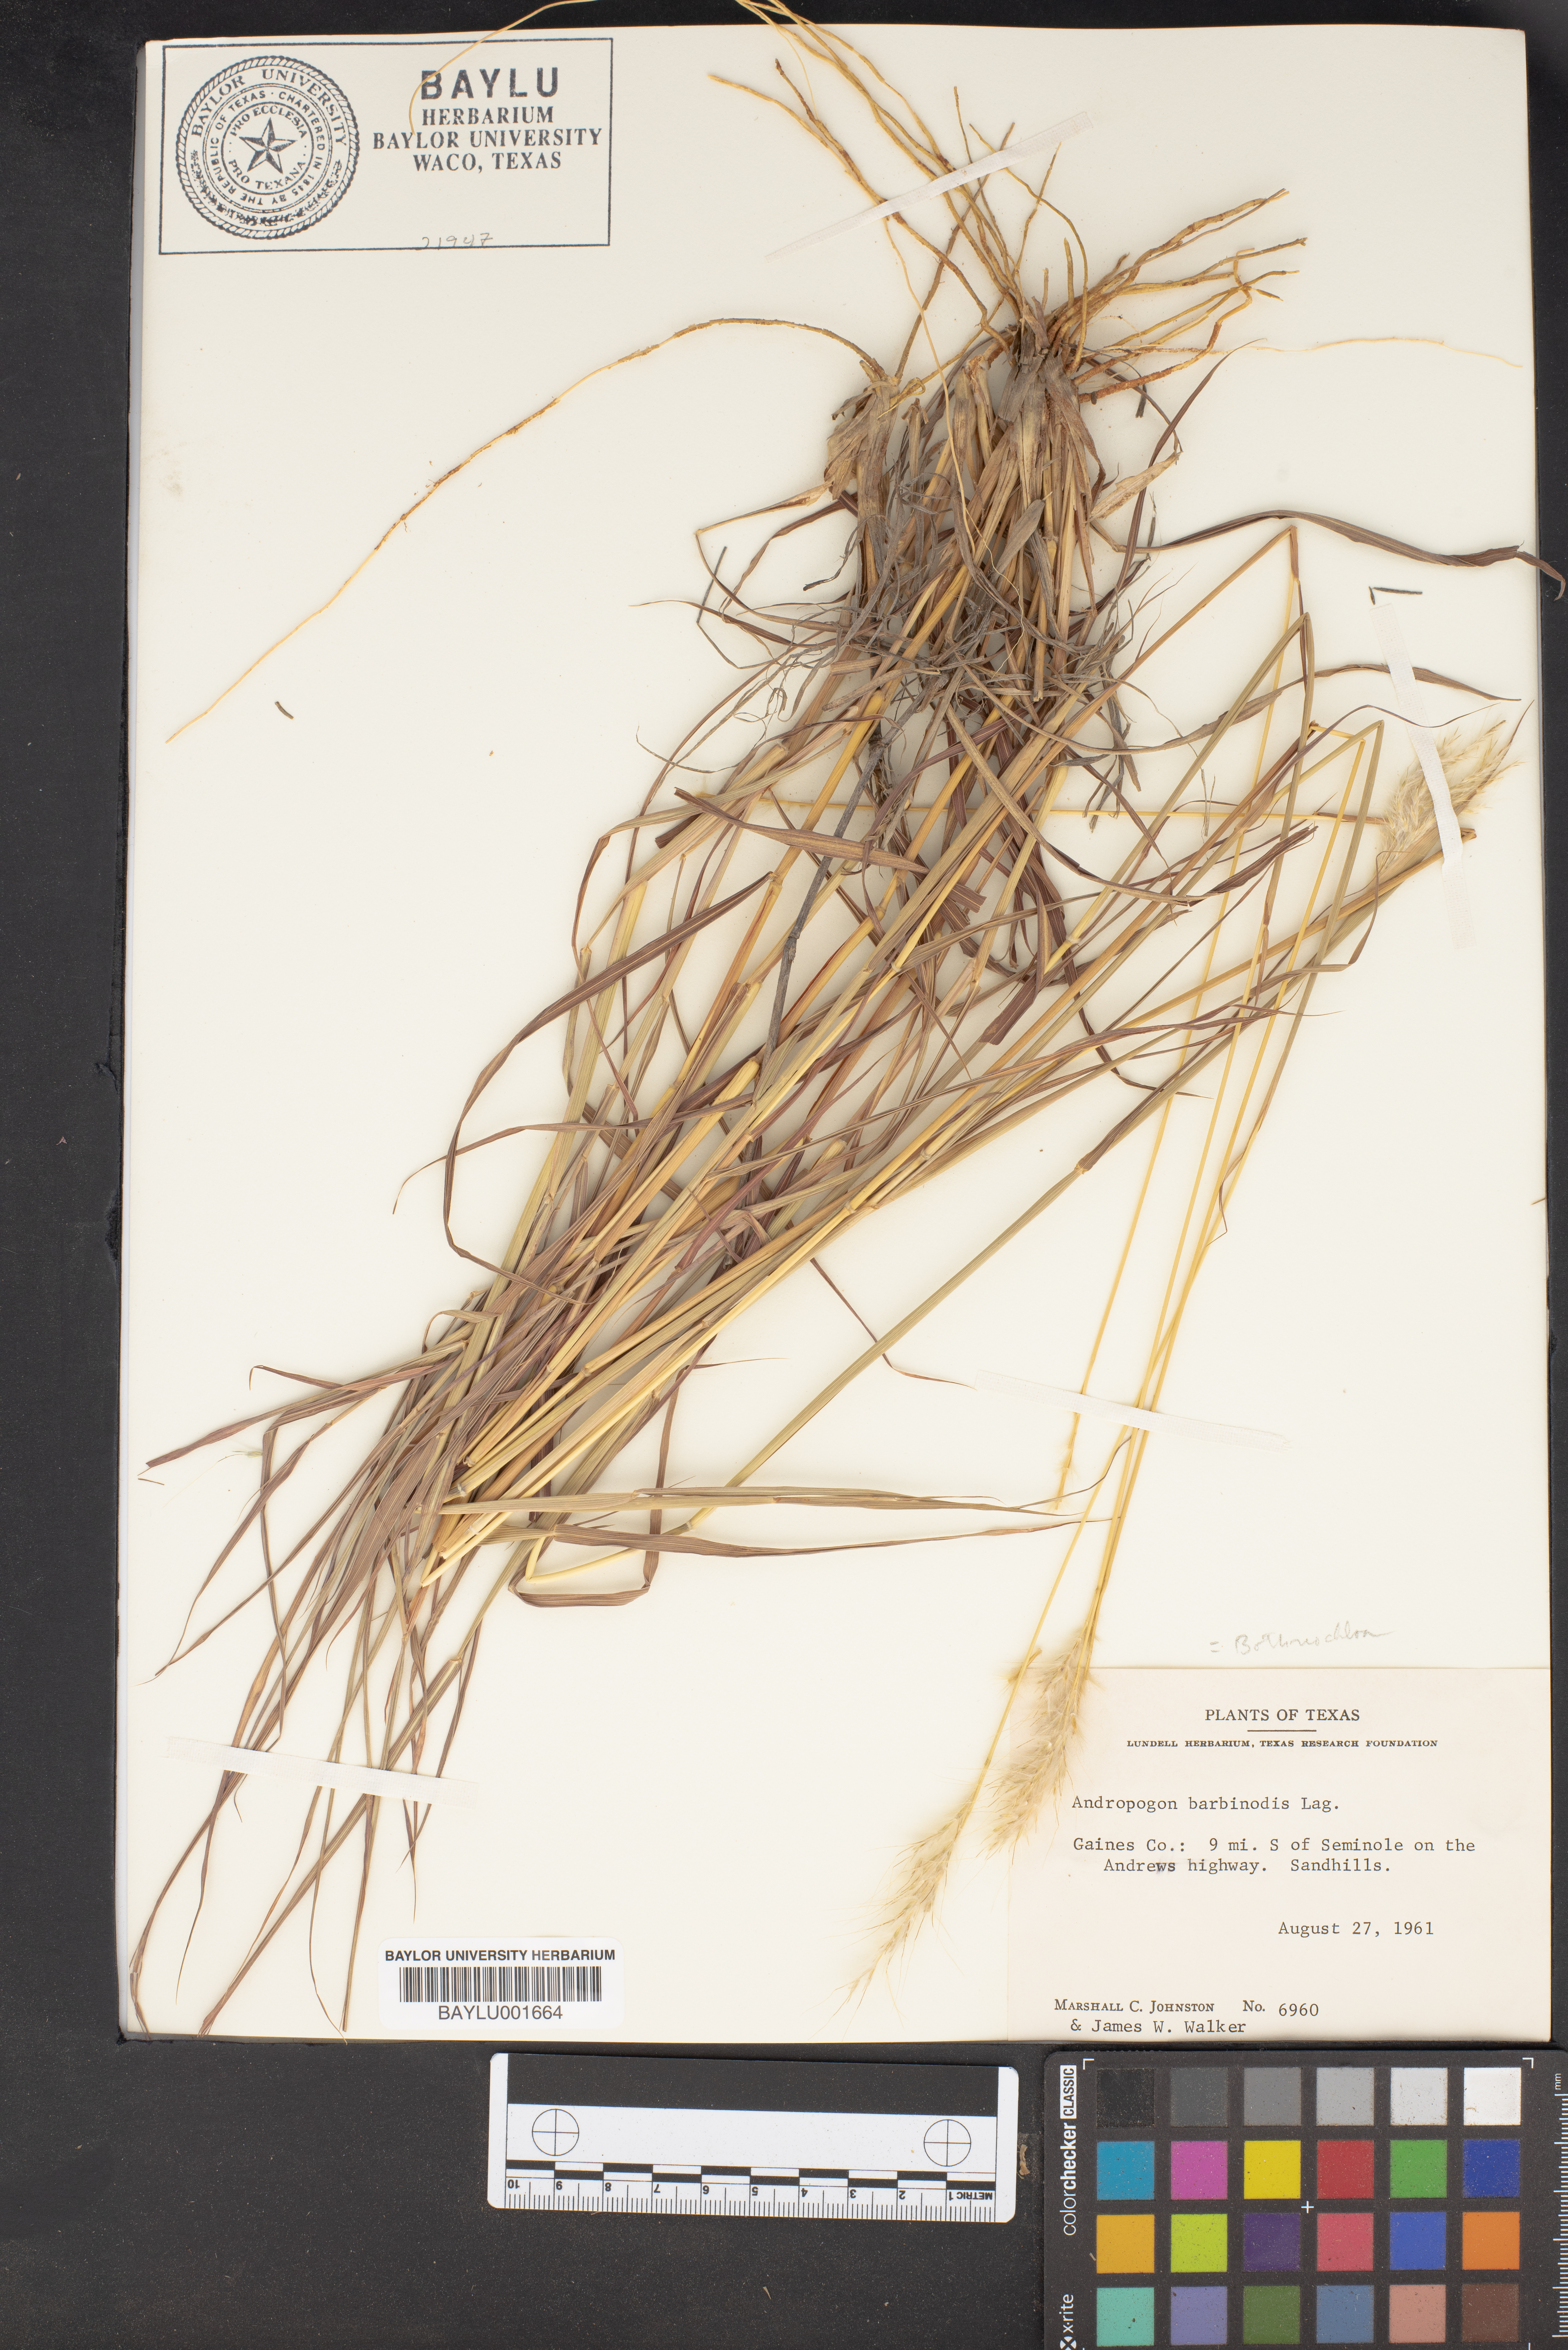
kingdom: Plantae
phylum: Tracheophyta
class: Liliopsida
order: Poales
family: Poaceae
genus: Bothriochloa
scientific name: Bothriochloa barbinodis
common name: Cane bluestem
